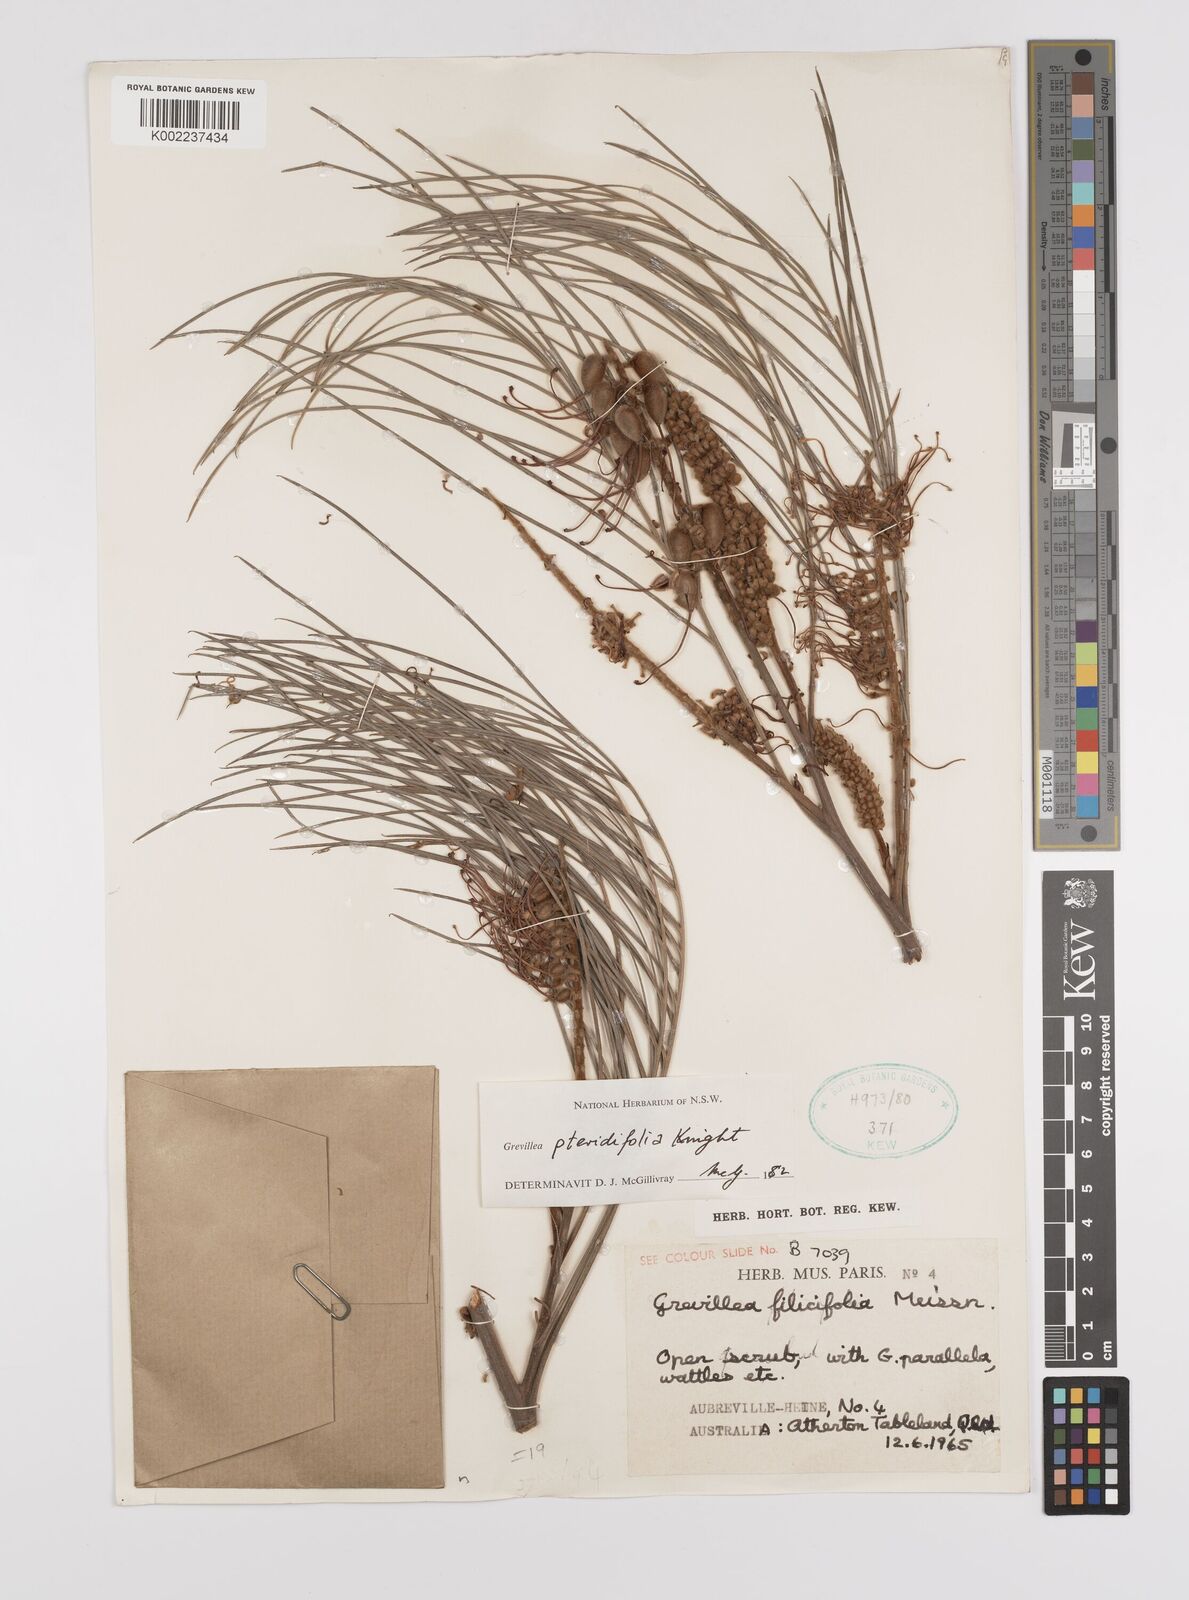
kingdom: Plantae
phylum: Tracheophyta
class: Magnoliopsida
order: Proteales
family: Proteaceae
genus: Grevillea
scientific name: Grevillea pteridifolia
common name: Golden grevillea
